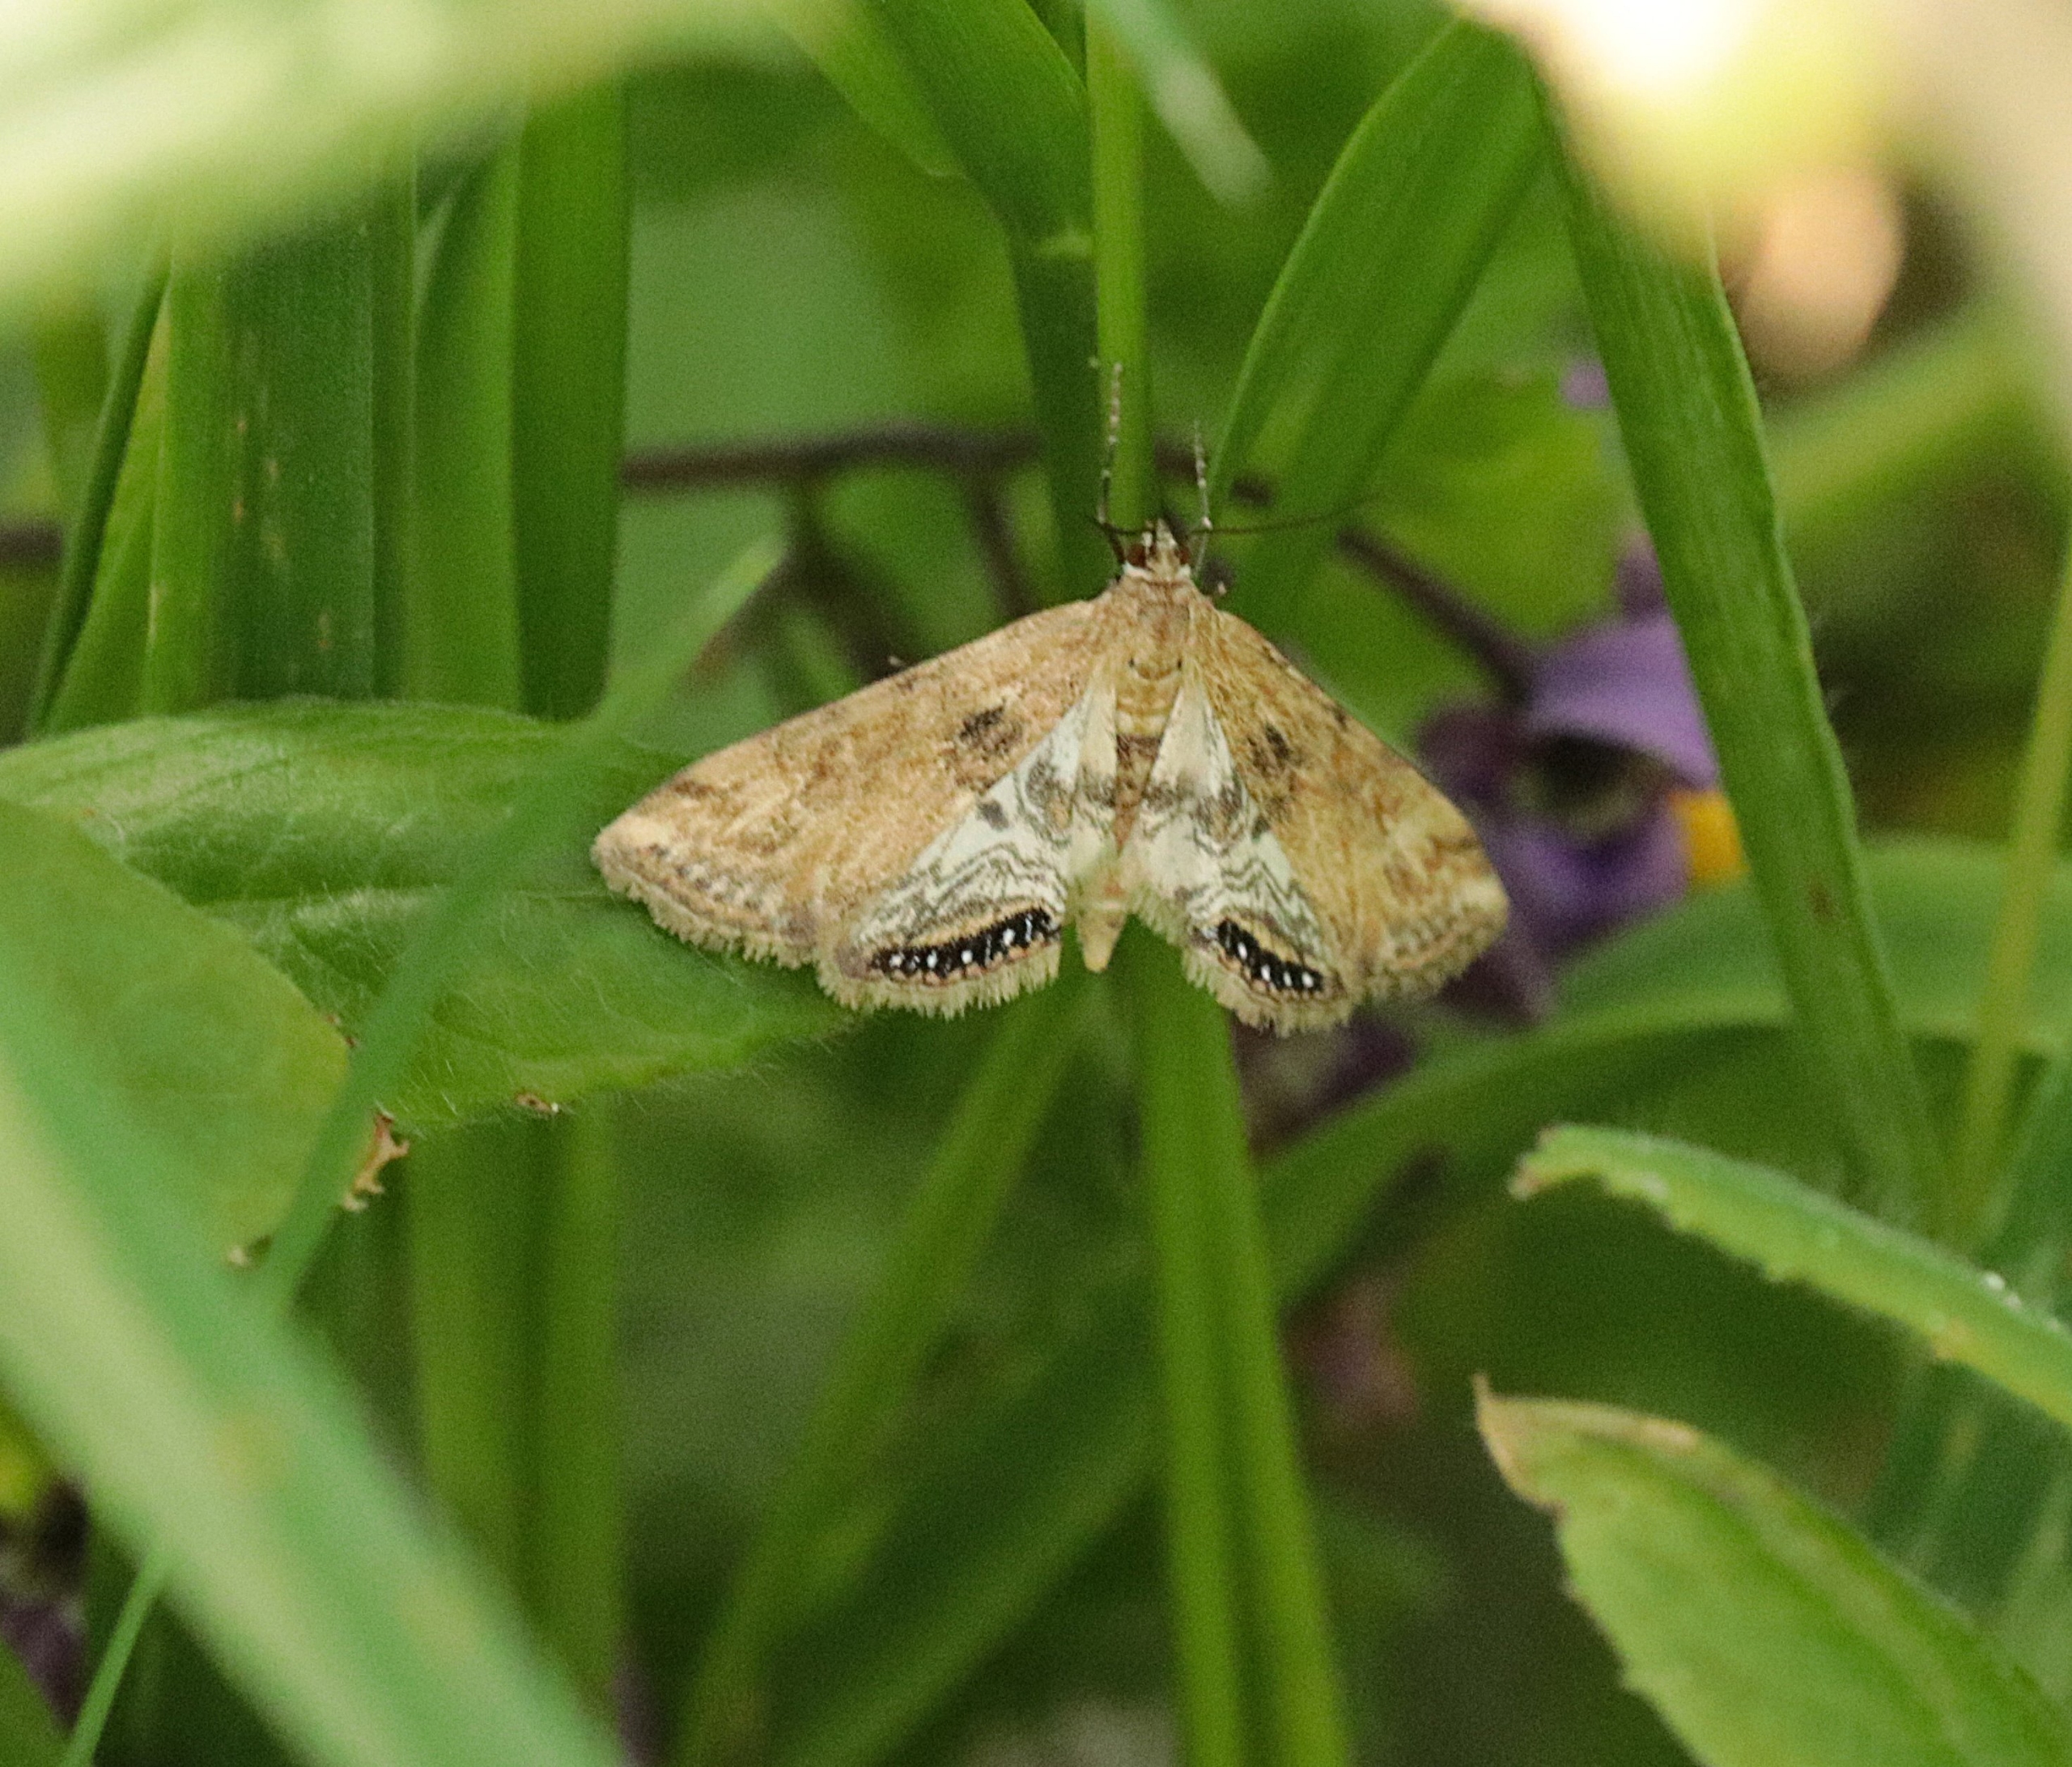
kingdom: Animalia
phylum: Arthropoda
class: Insecta
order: Lepidoptera
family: Crambidae
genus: Cataclysta
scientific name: Cataclysta lemnata
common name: Andemadhalvmøl
